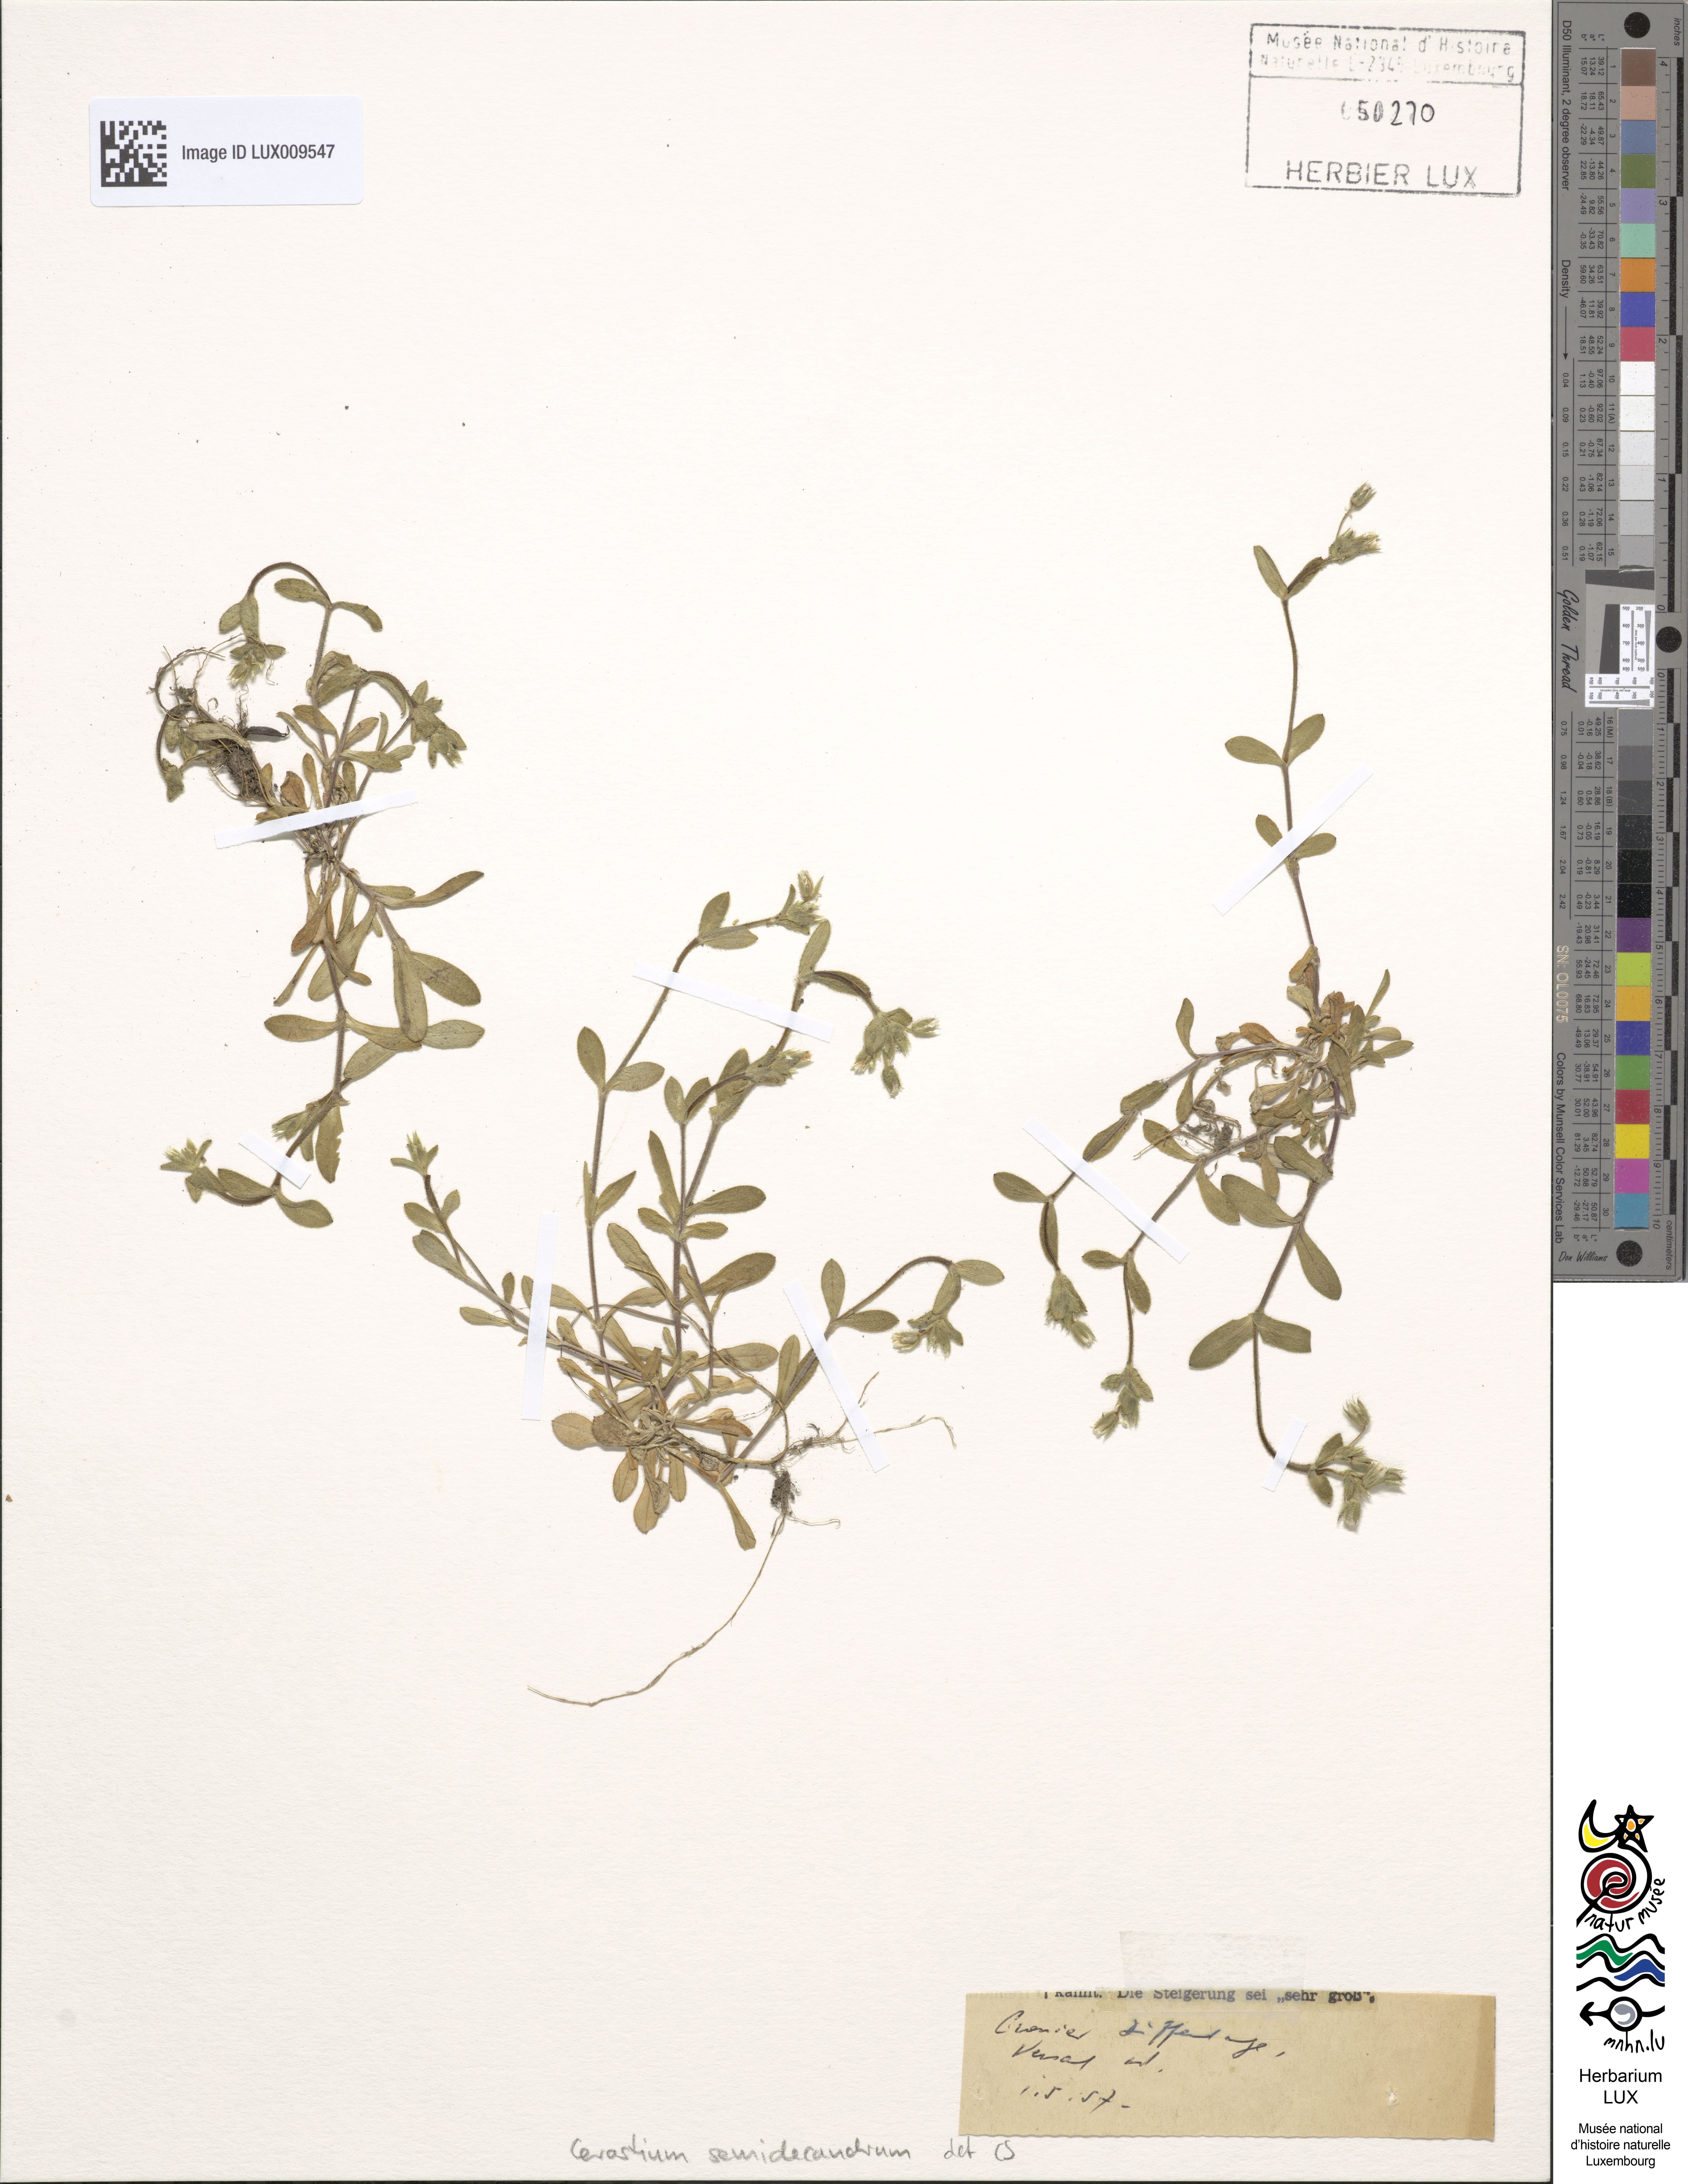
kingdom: Plantae
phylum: Tracheophyta
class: Magnoliopsida
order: Caryophyllales
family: Caryophyllaceae
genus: Cerastium
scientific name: Cerastium semidecandrum
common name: Little mouse-ear
